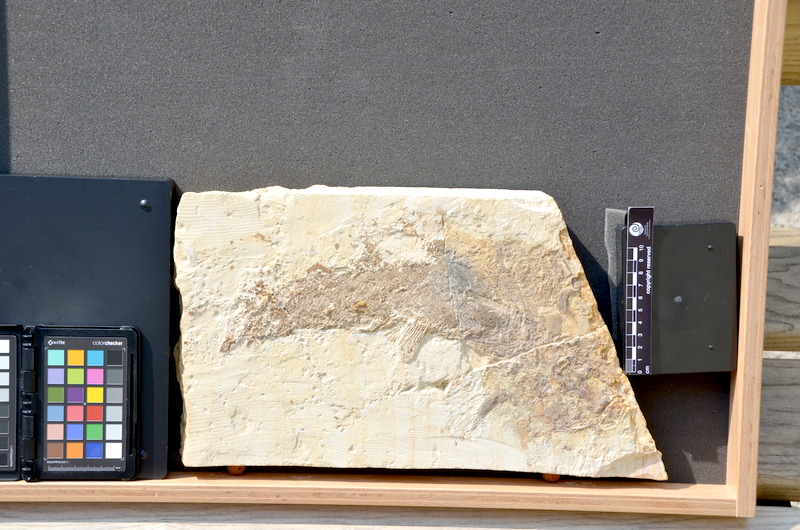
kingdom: Animalia
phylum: Chordata
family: Pholidophoridae
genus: Pholidophorus
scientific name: Pholidophorus
